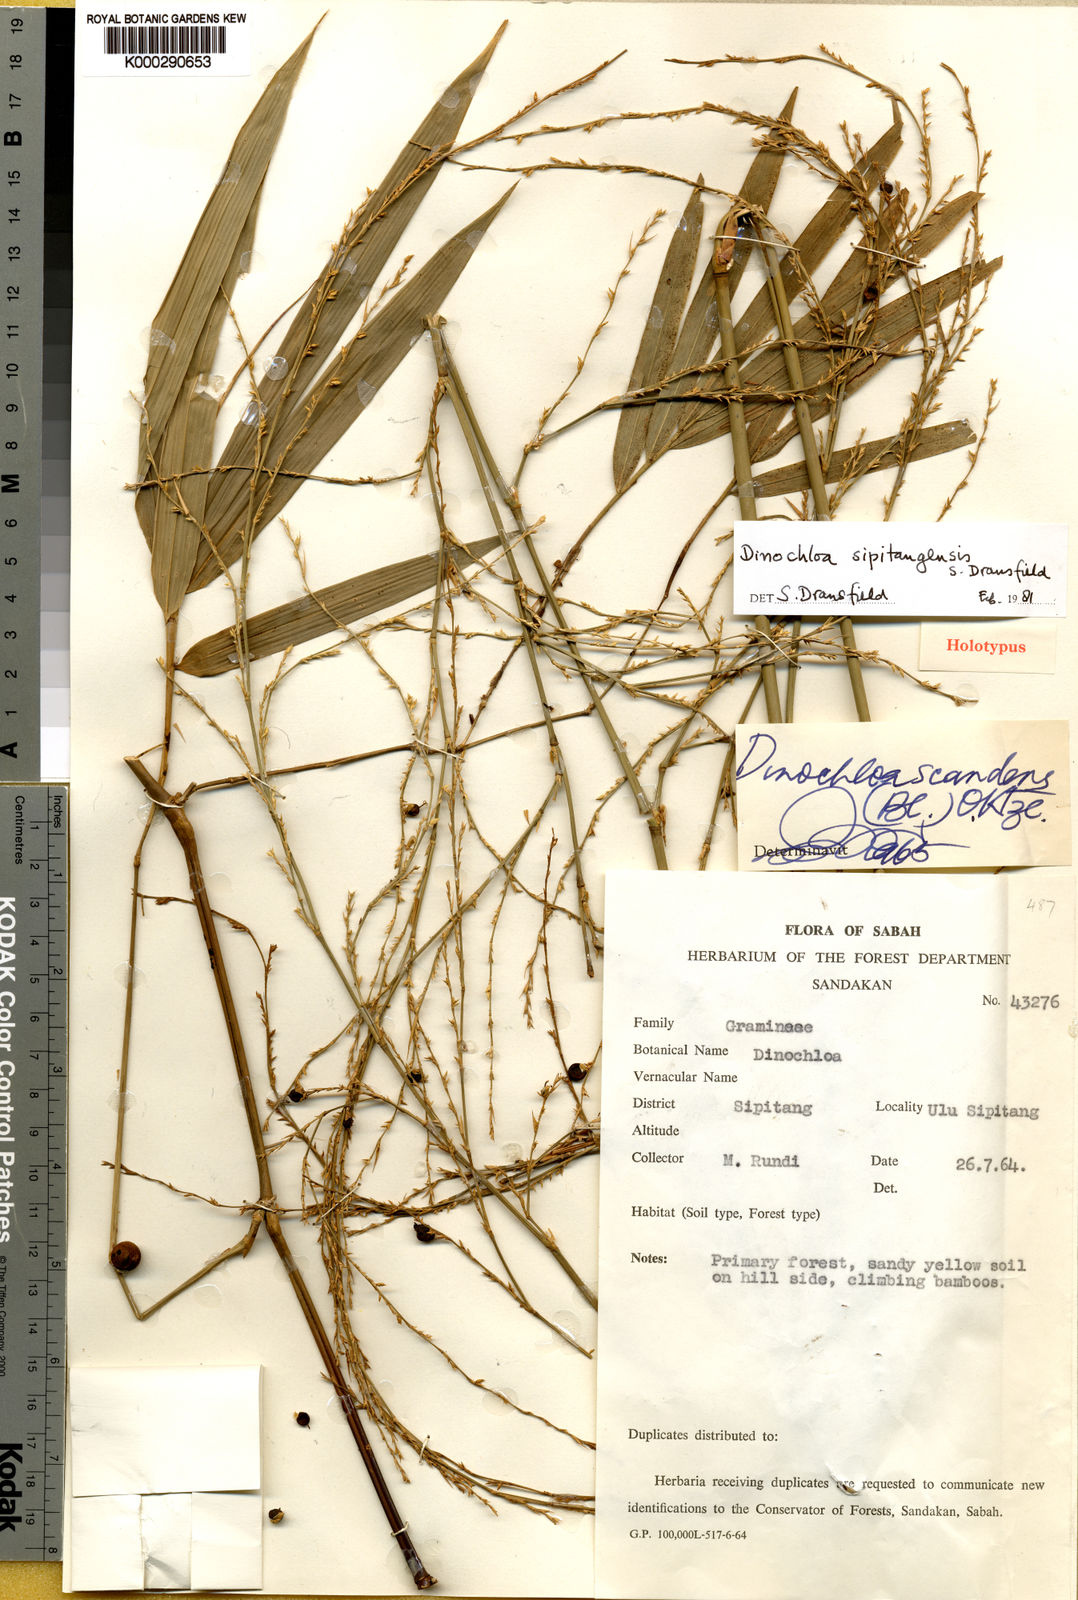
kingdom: Plantae
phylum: Tracheophyta
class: Liliopsida
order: Poales
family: Poaceae
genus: Dinochloa
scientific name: Dinochloa sipitangensis
